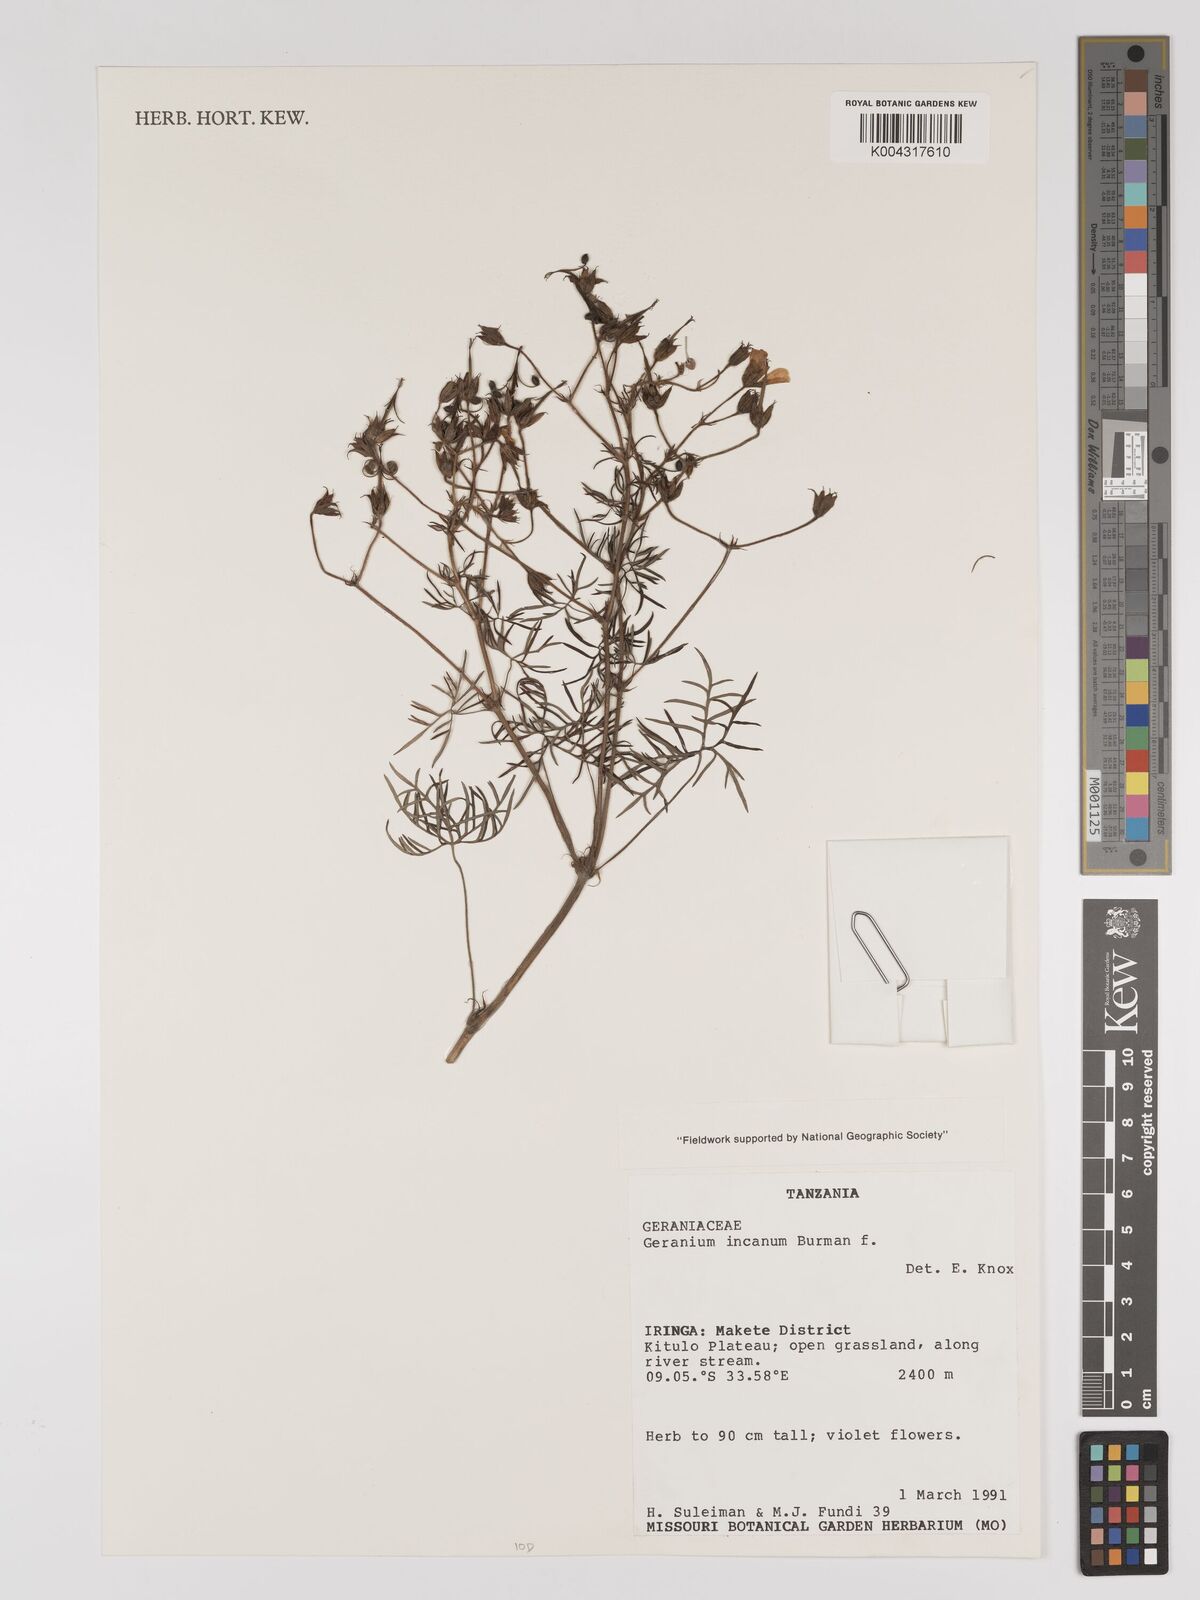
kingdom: Plantae
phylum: Tracheophyta
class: Magnoliopsida
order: Geraniales
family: Geraniaceae
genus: Geranium
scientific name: Geranium incanum
